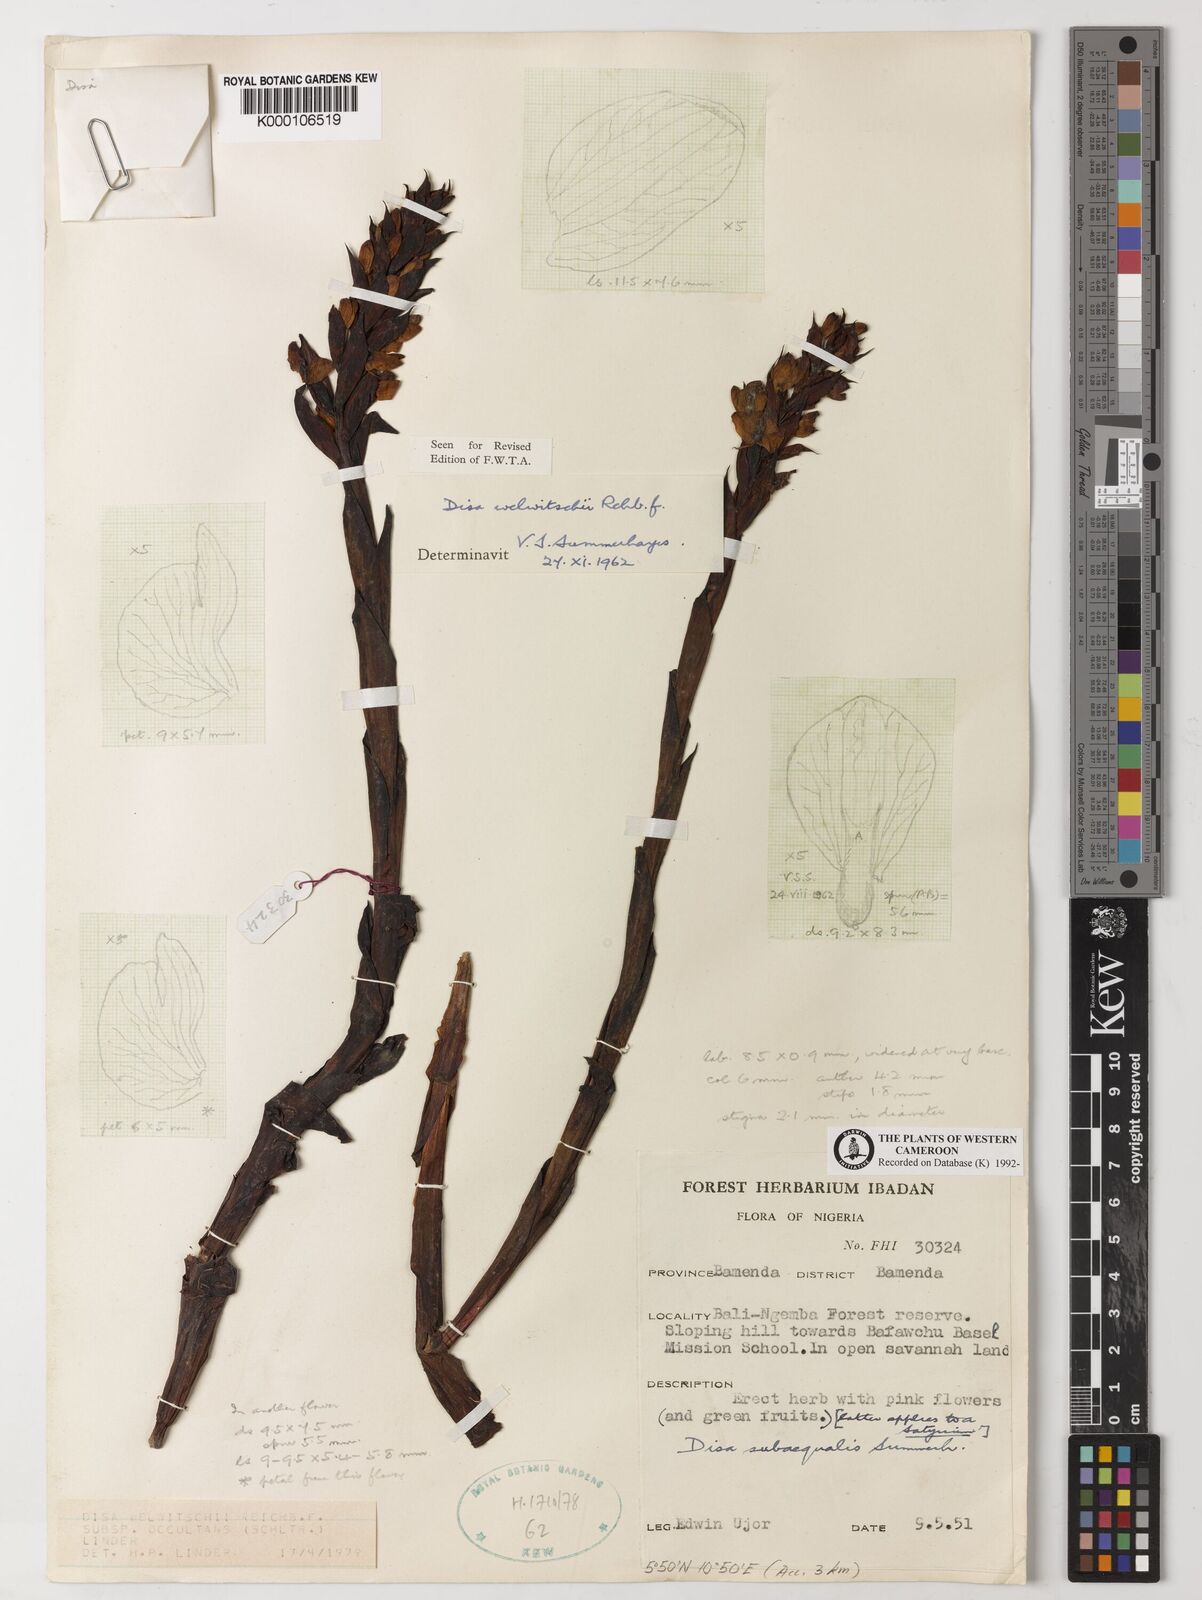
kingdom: Plantae
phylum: Tracheophyta
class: Liliopsida
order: Asparagales
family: Orchidaceae
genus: Disa
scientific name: Disa welwitschii
